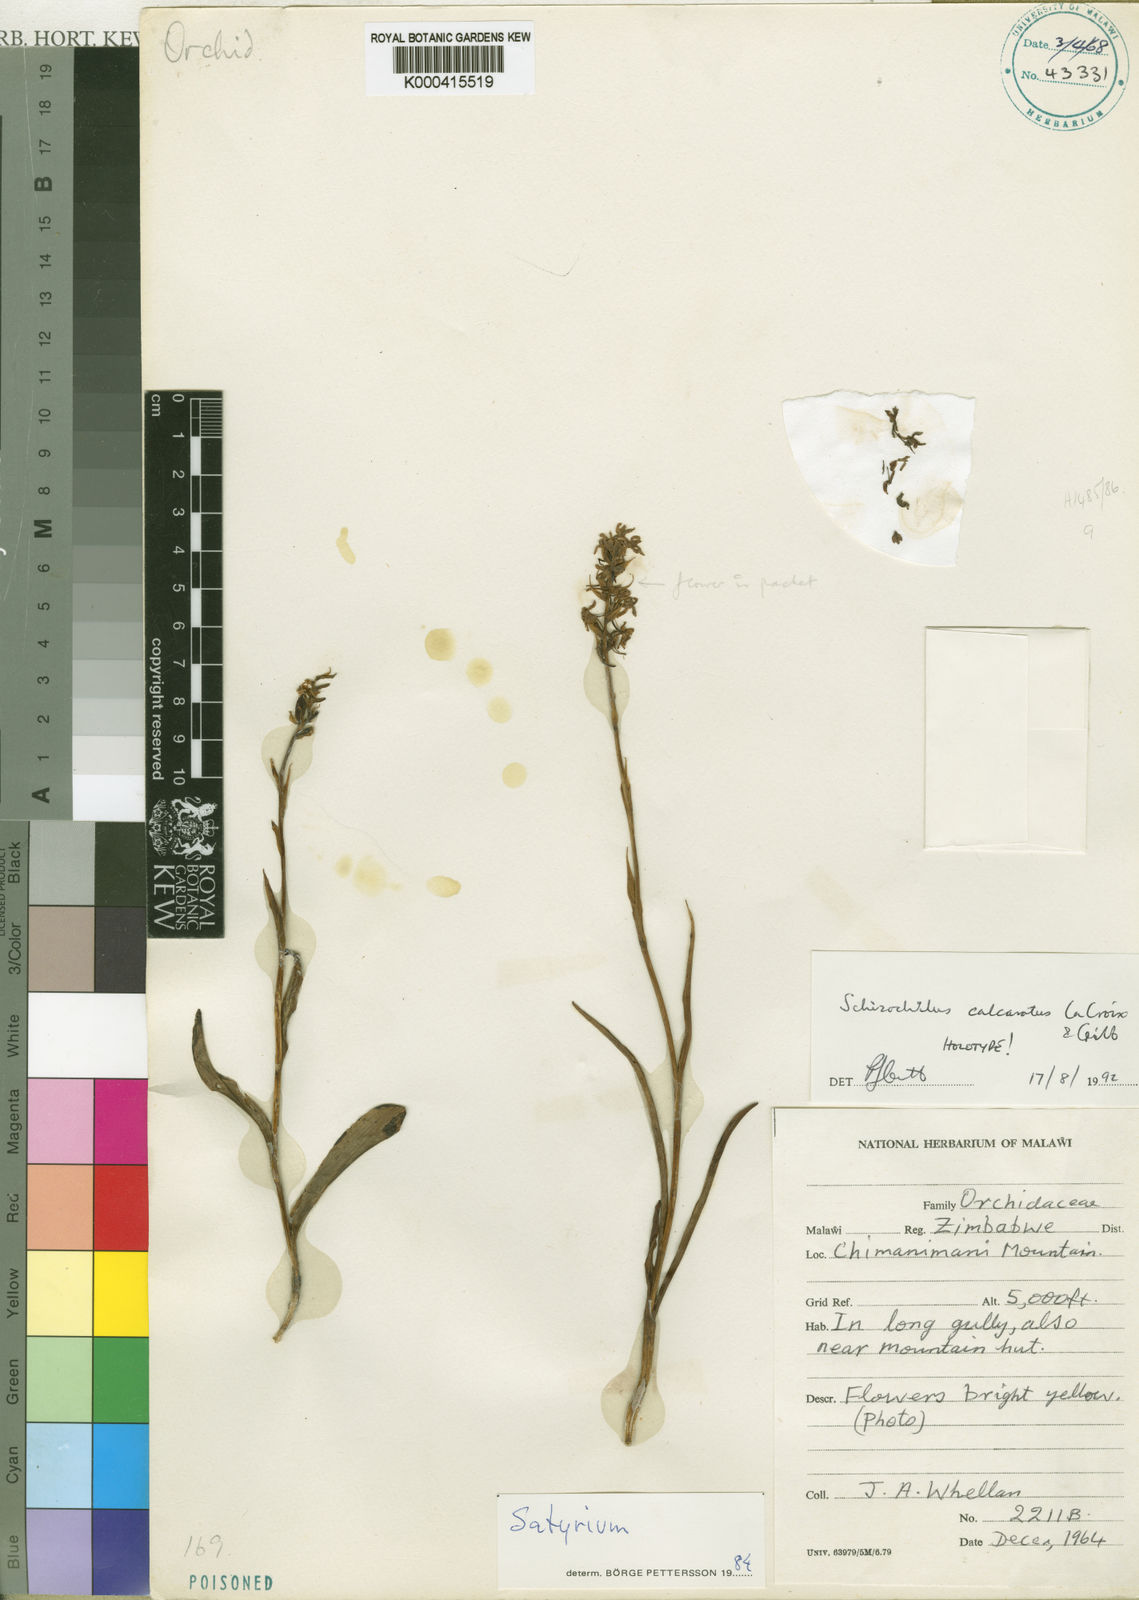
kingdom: Plantae
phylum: Tracheophyta
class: Liliopsida
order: Asparagales
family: Orchidaceae
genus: Schizochilus
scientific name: Schizochilus calcaratus
